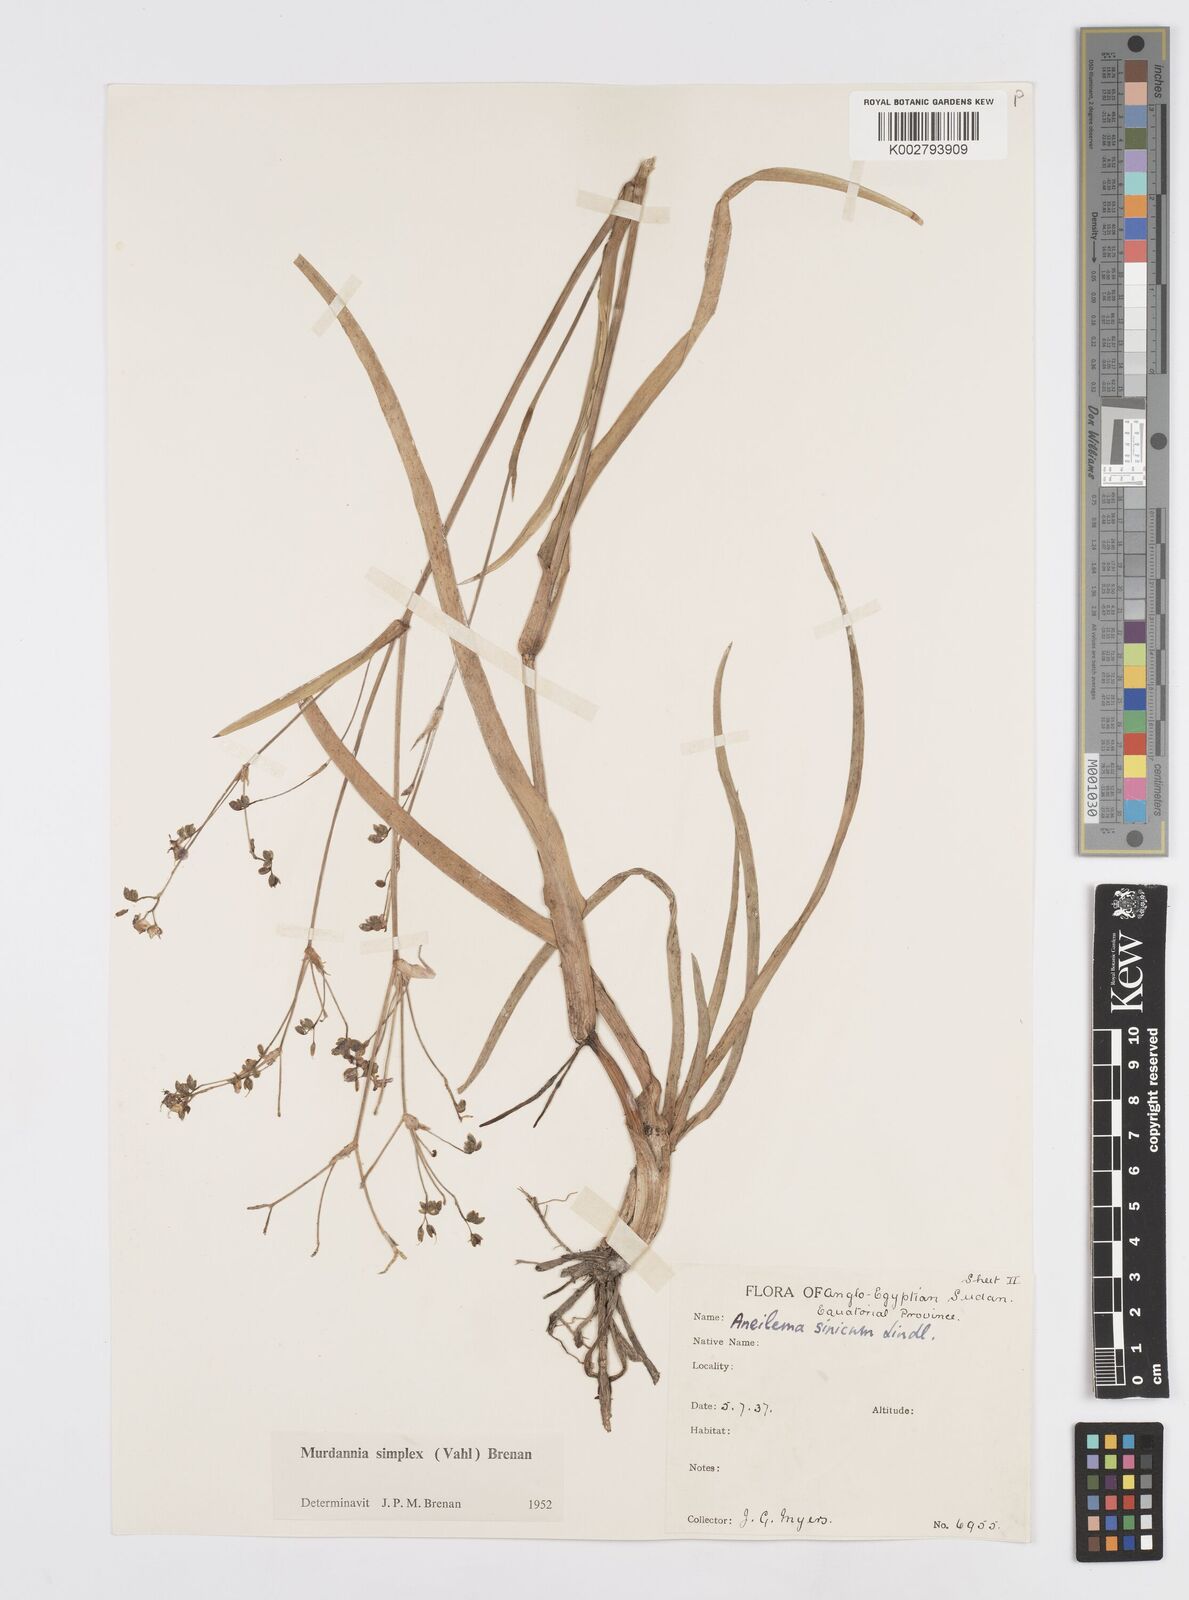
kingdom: Plantae
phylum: Tracheophyta
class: Liliopsida
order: Commelinales
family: Commelinaceae
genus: Murdannia
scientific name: Murdannia simplex
